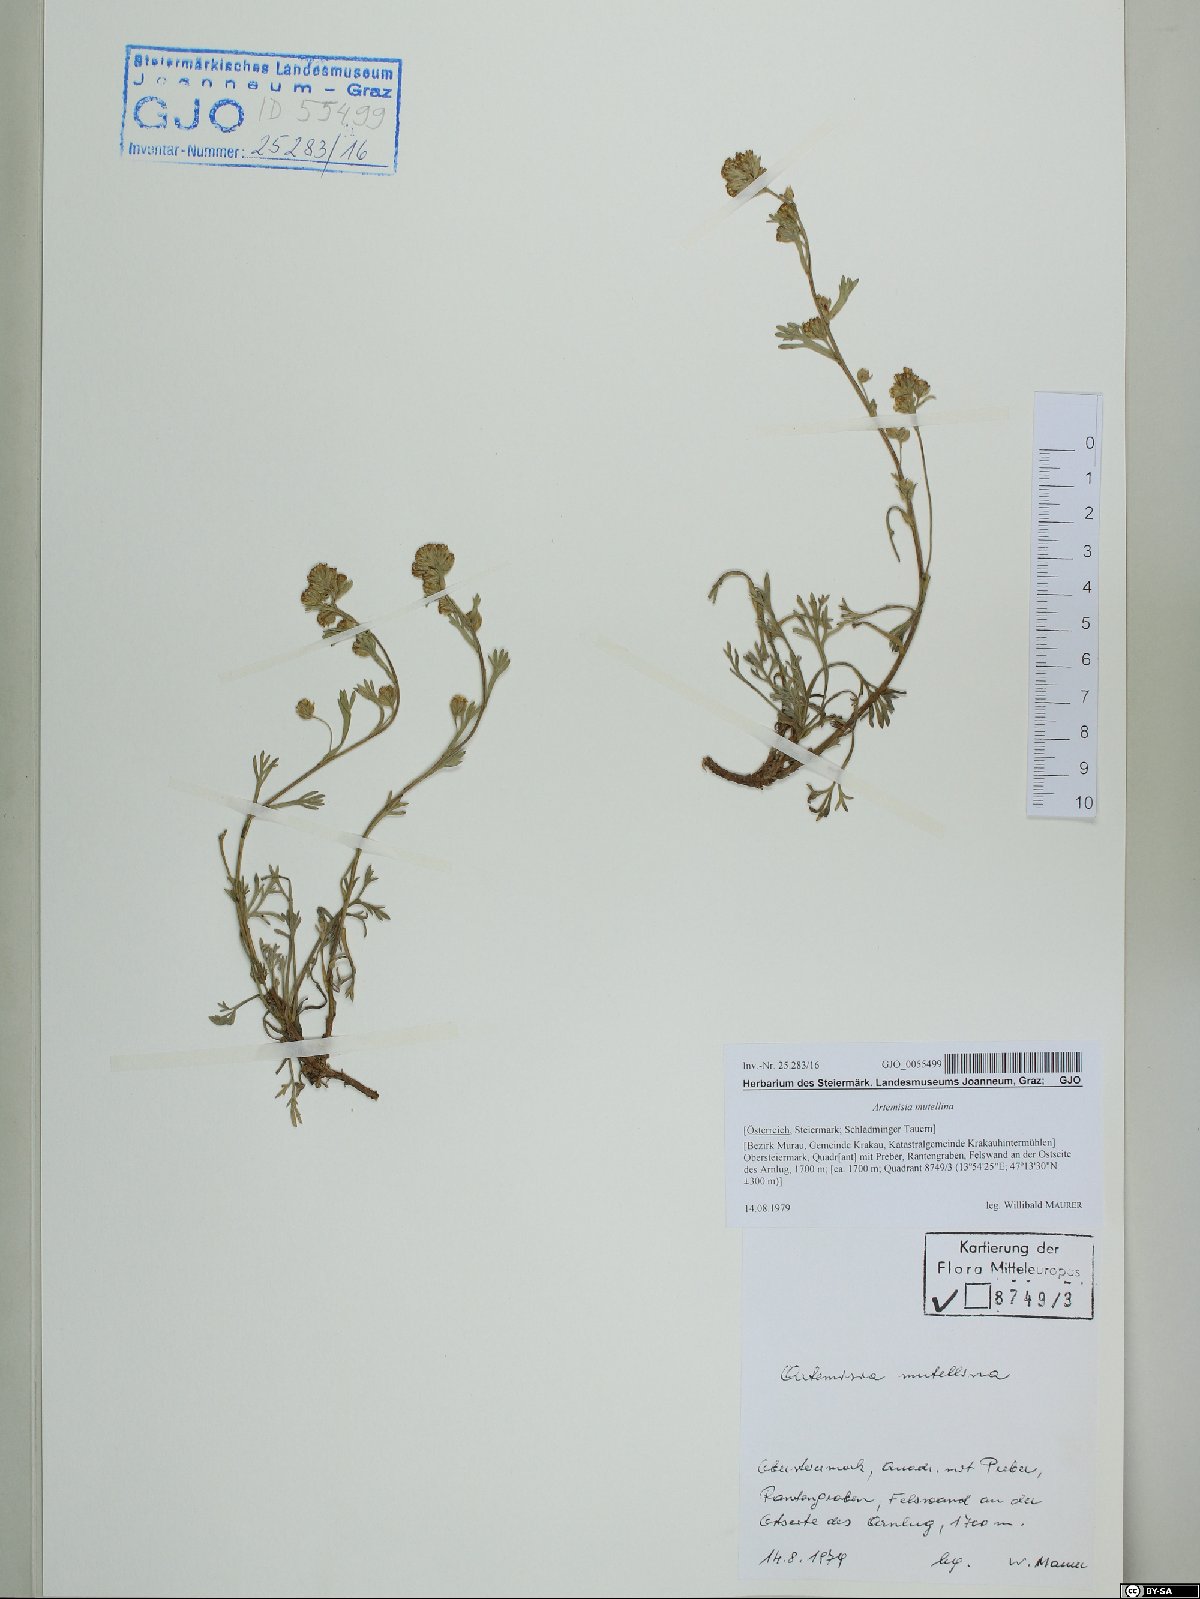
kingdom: Plantae
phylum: Tracheophyta
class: Magnoliopsida
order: Asterales
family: Asteraceae
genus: Artemisia
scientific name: Artemisia mutellina
